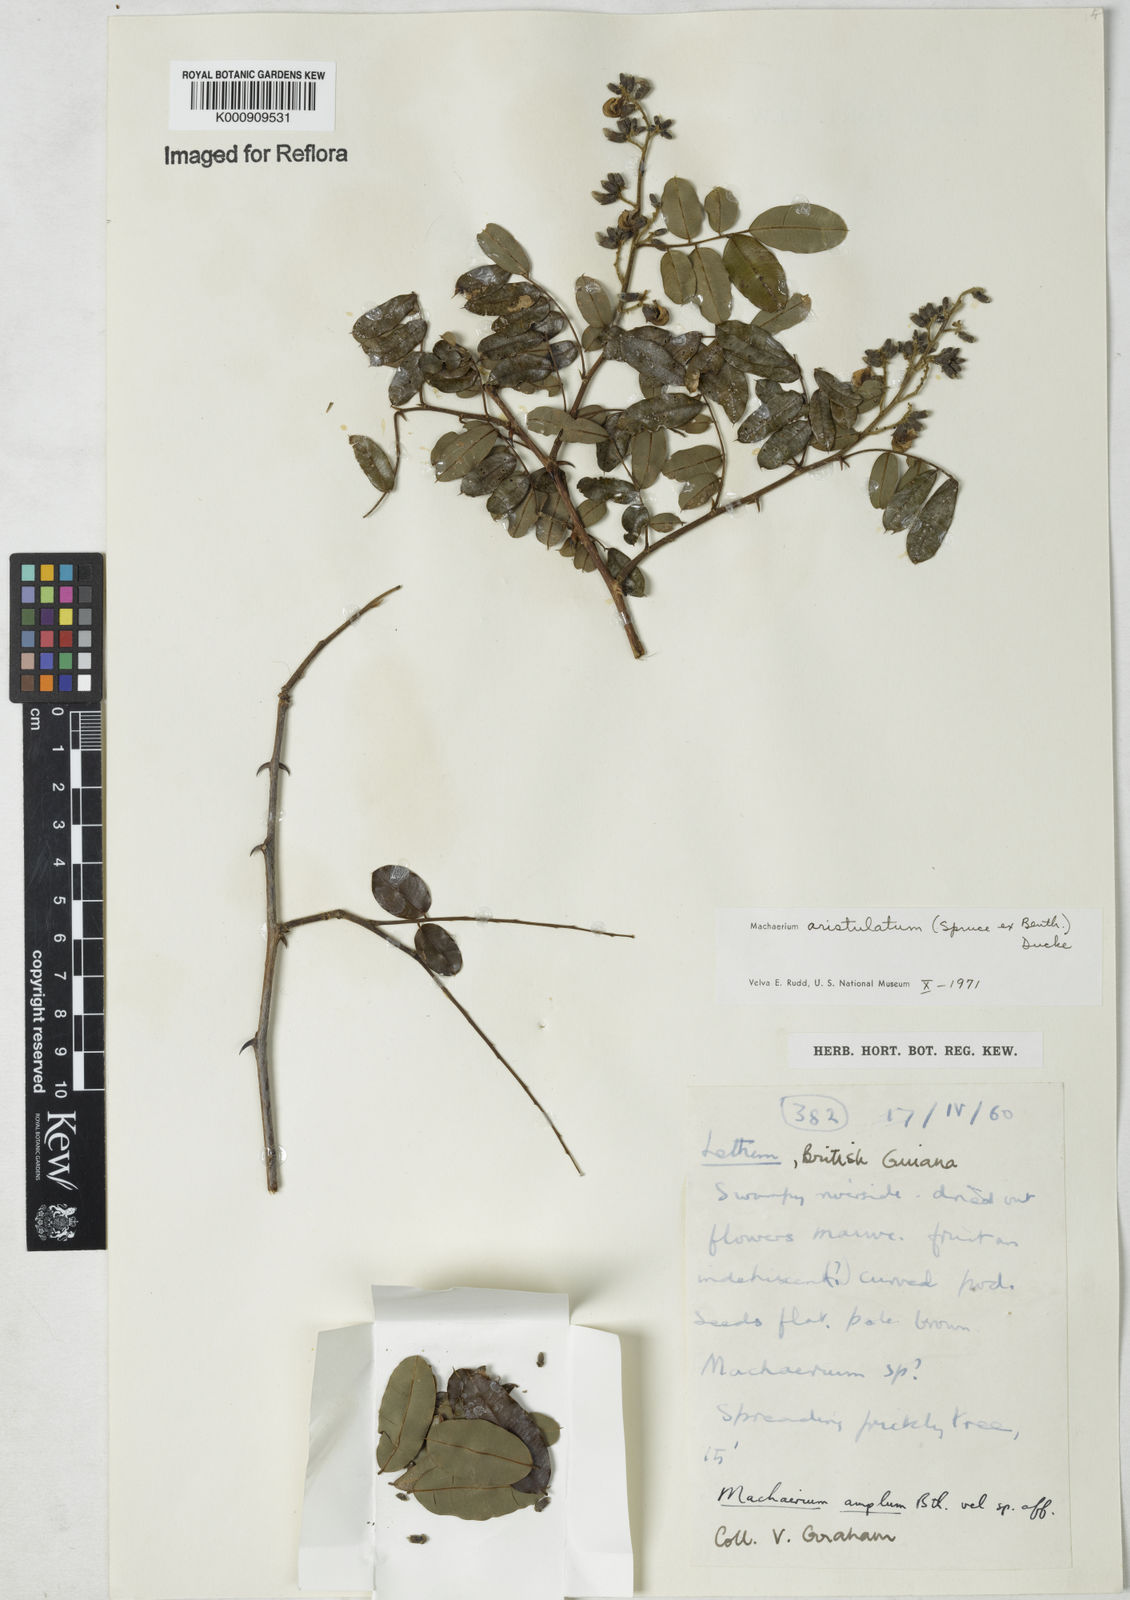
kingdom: Plantae
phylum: Tracheophyta
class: Magnoliopsida
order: Fabales
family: Fabaceae
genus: Machaerium
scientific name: Machaerium aristulatum
